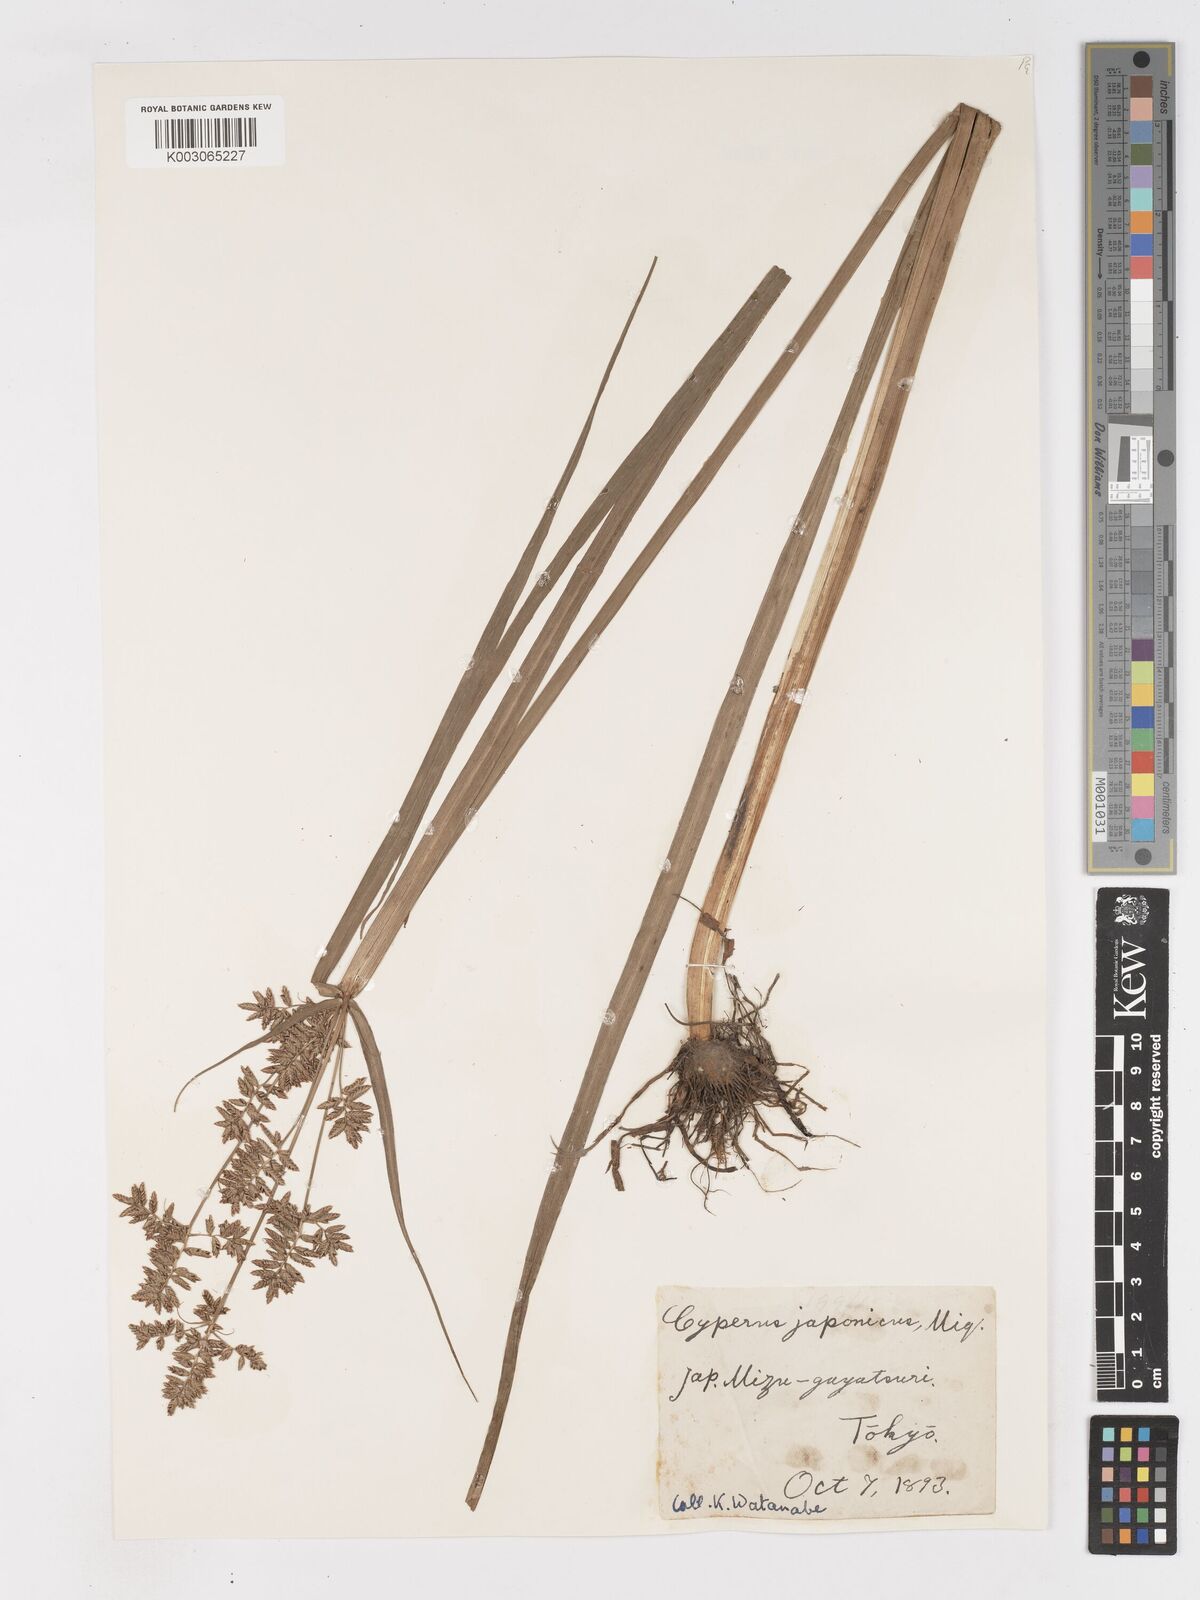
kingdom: Plantae
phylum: Tracheophyta
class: Liliopsida
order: Poales
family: Cyperaceae
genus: Cyperus
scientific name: Cyperus serotinus
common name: Tidalmarsh flatsedge
